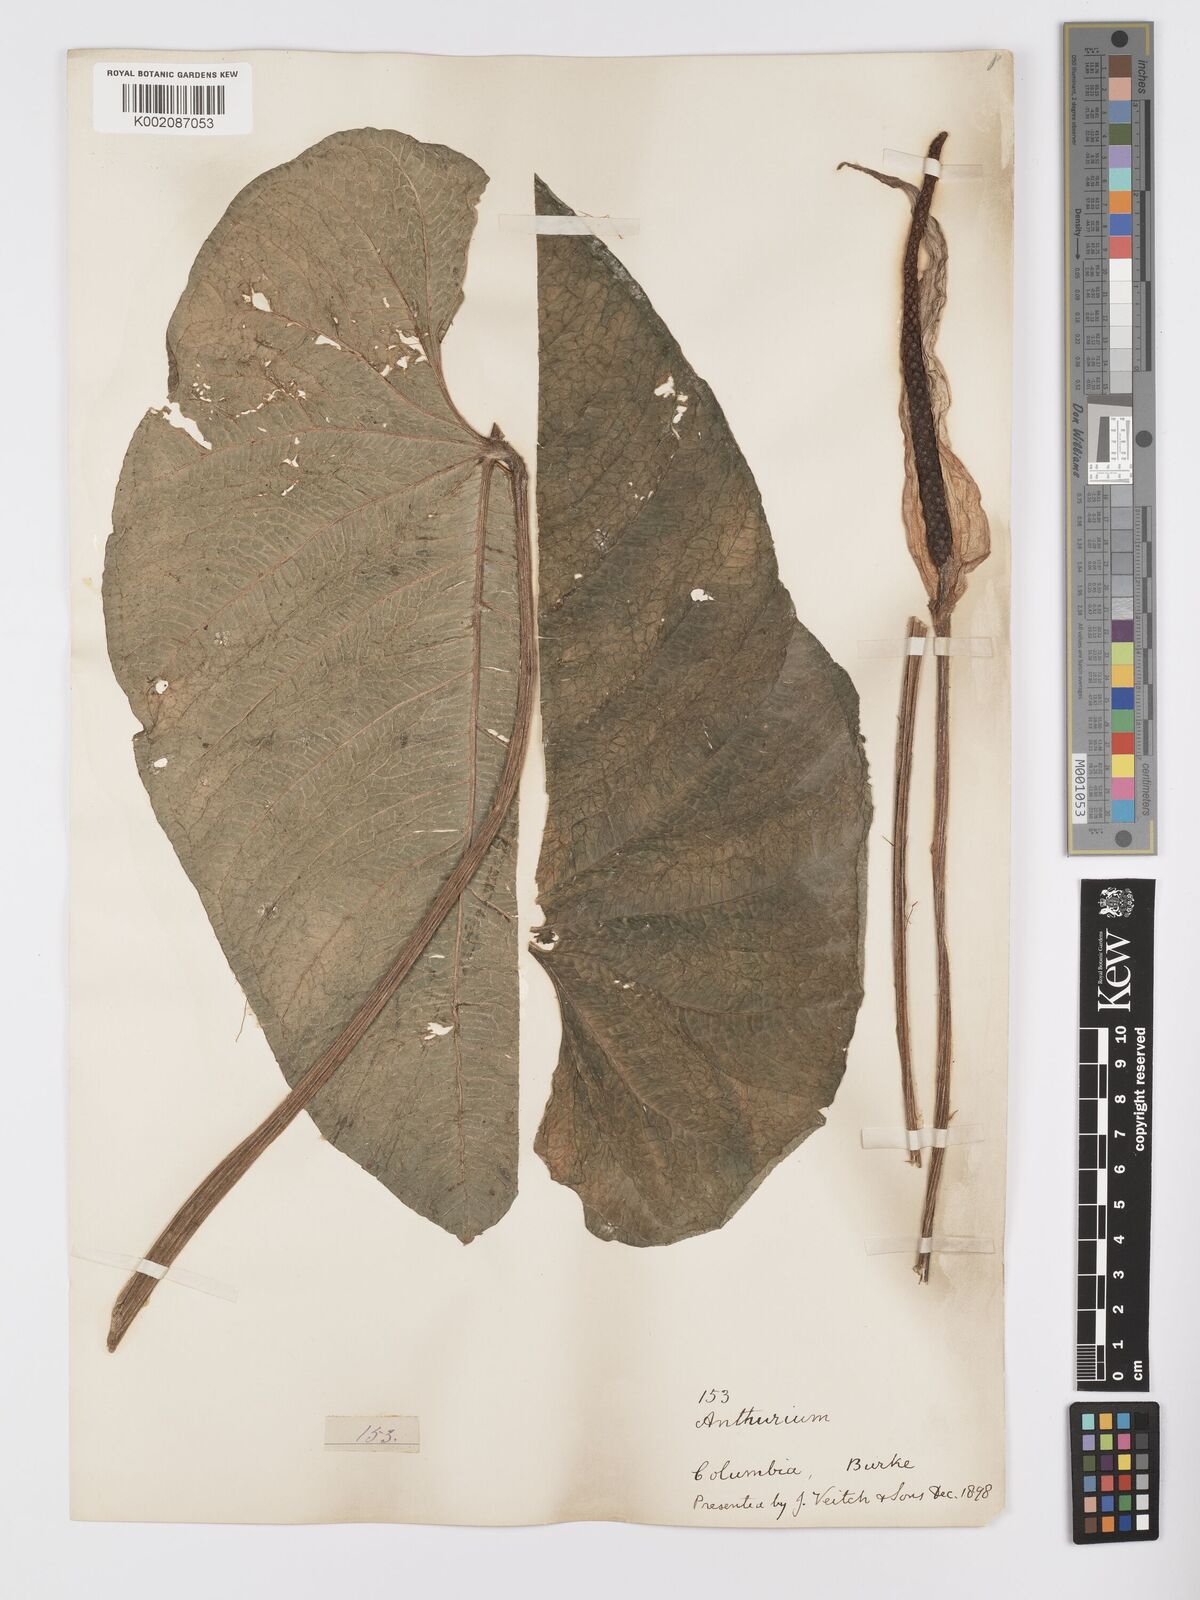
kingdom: Plantae
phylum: Tracheophyta
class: Liliopsida
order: Alismatales
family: Araceae
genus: Anthurium
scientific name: Anthurium splendidum
